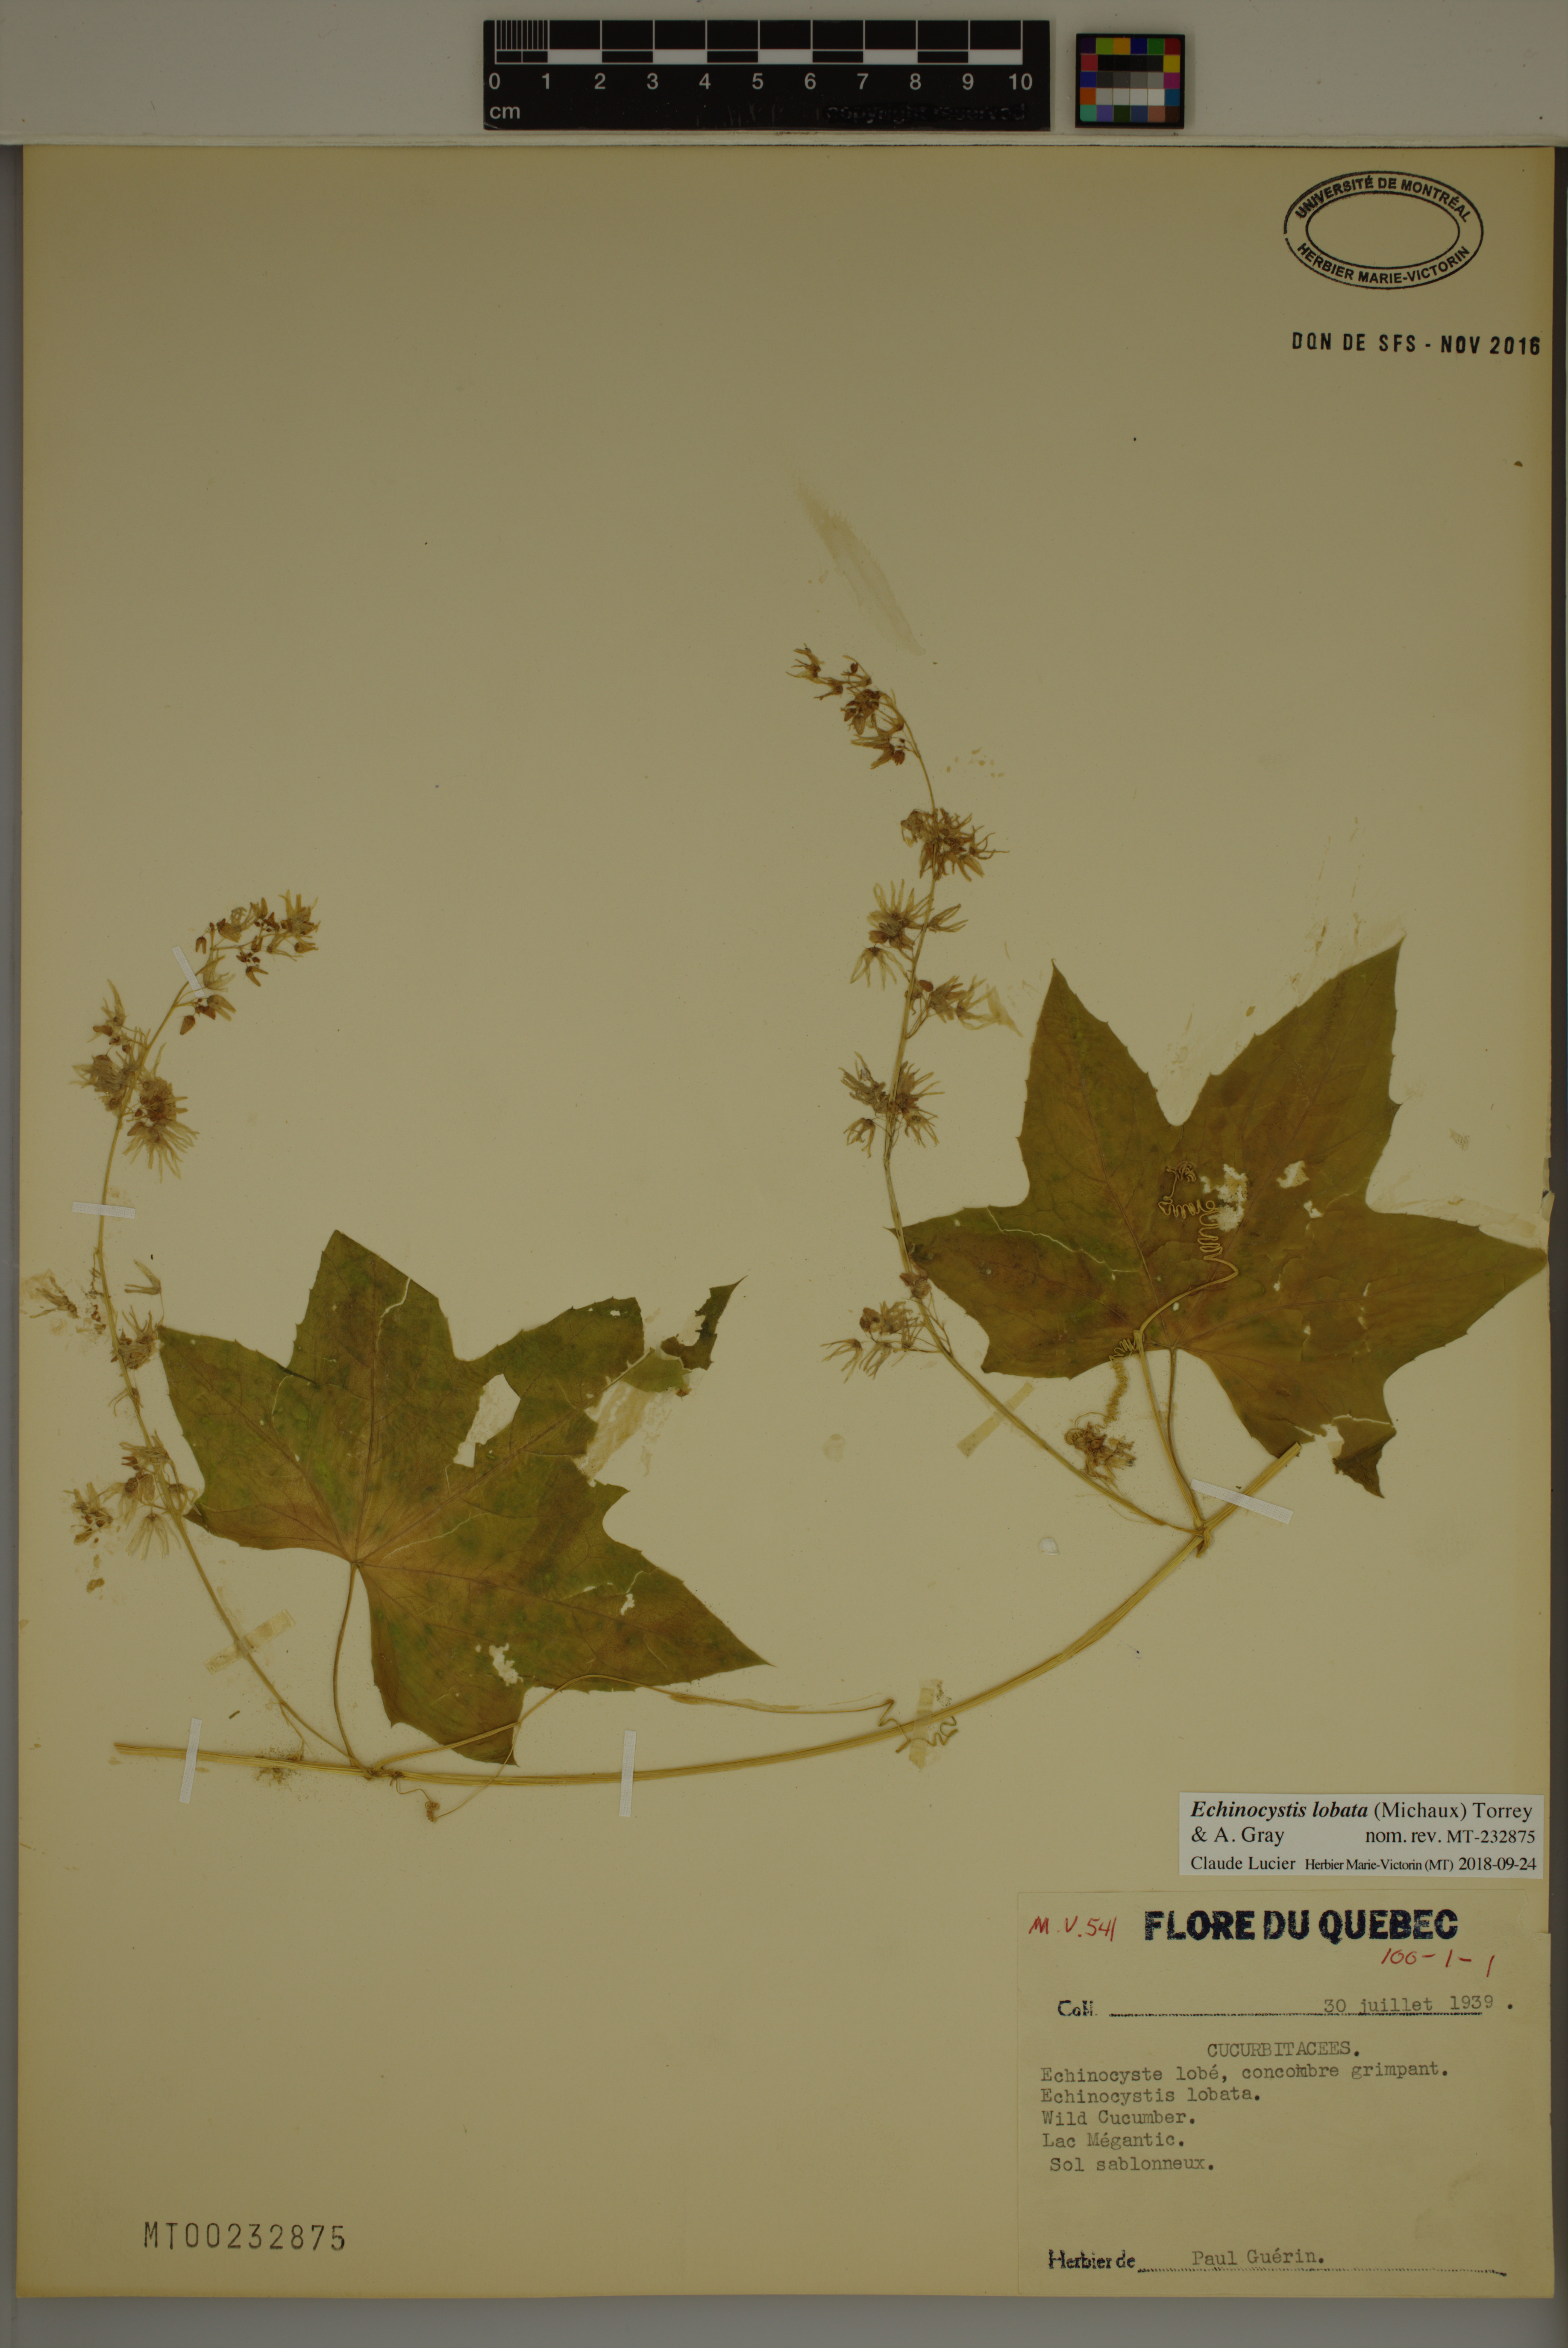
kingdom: Plantae
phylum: Tracheophyta
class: Magnoliopsida
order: Cucurbitales
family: Cucurbitaceae
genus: Echinocystis
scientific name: Echinocystis lobata
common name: Wild cucumber
